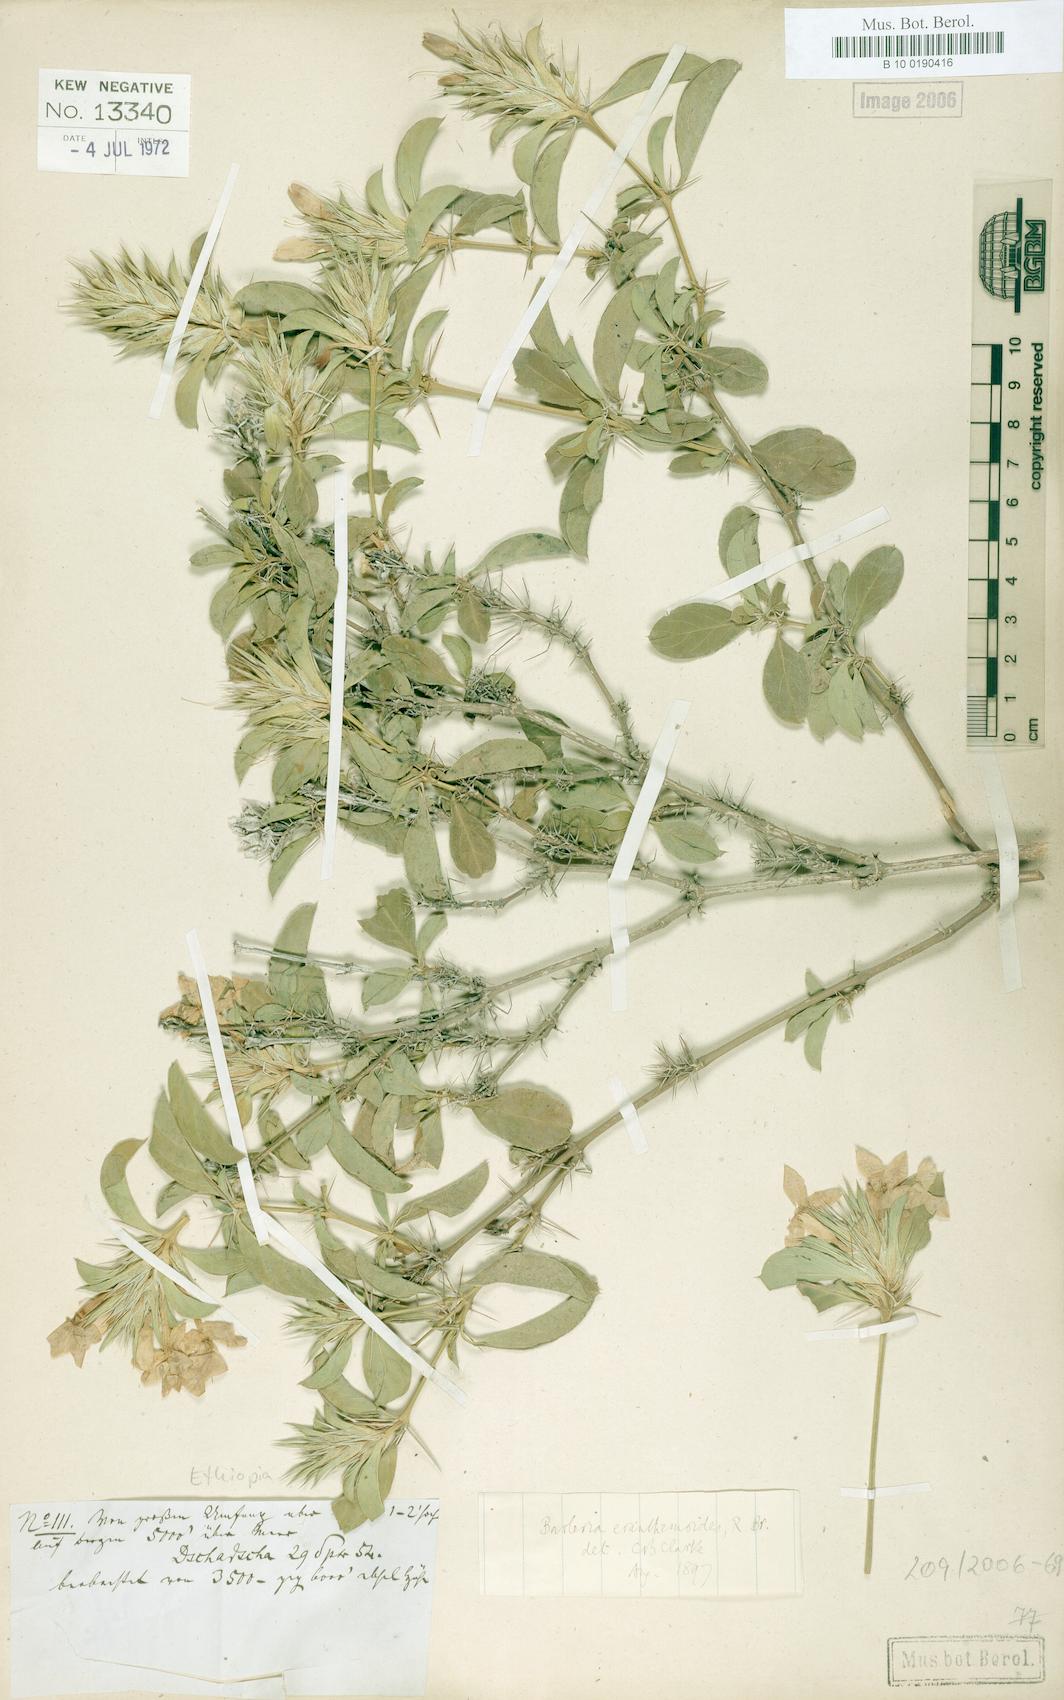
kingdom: Plantae
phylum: Tracheophyta
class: Magnoliopsida
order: Lamiales
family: Acanthaceae
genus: Barleria
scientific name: Barleria eranthemoides
